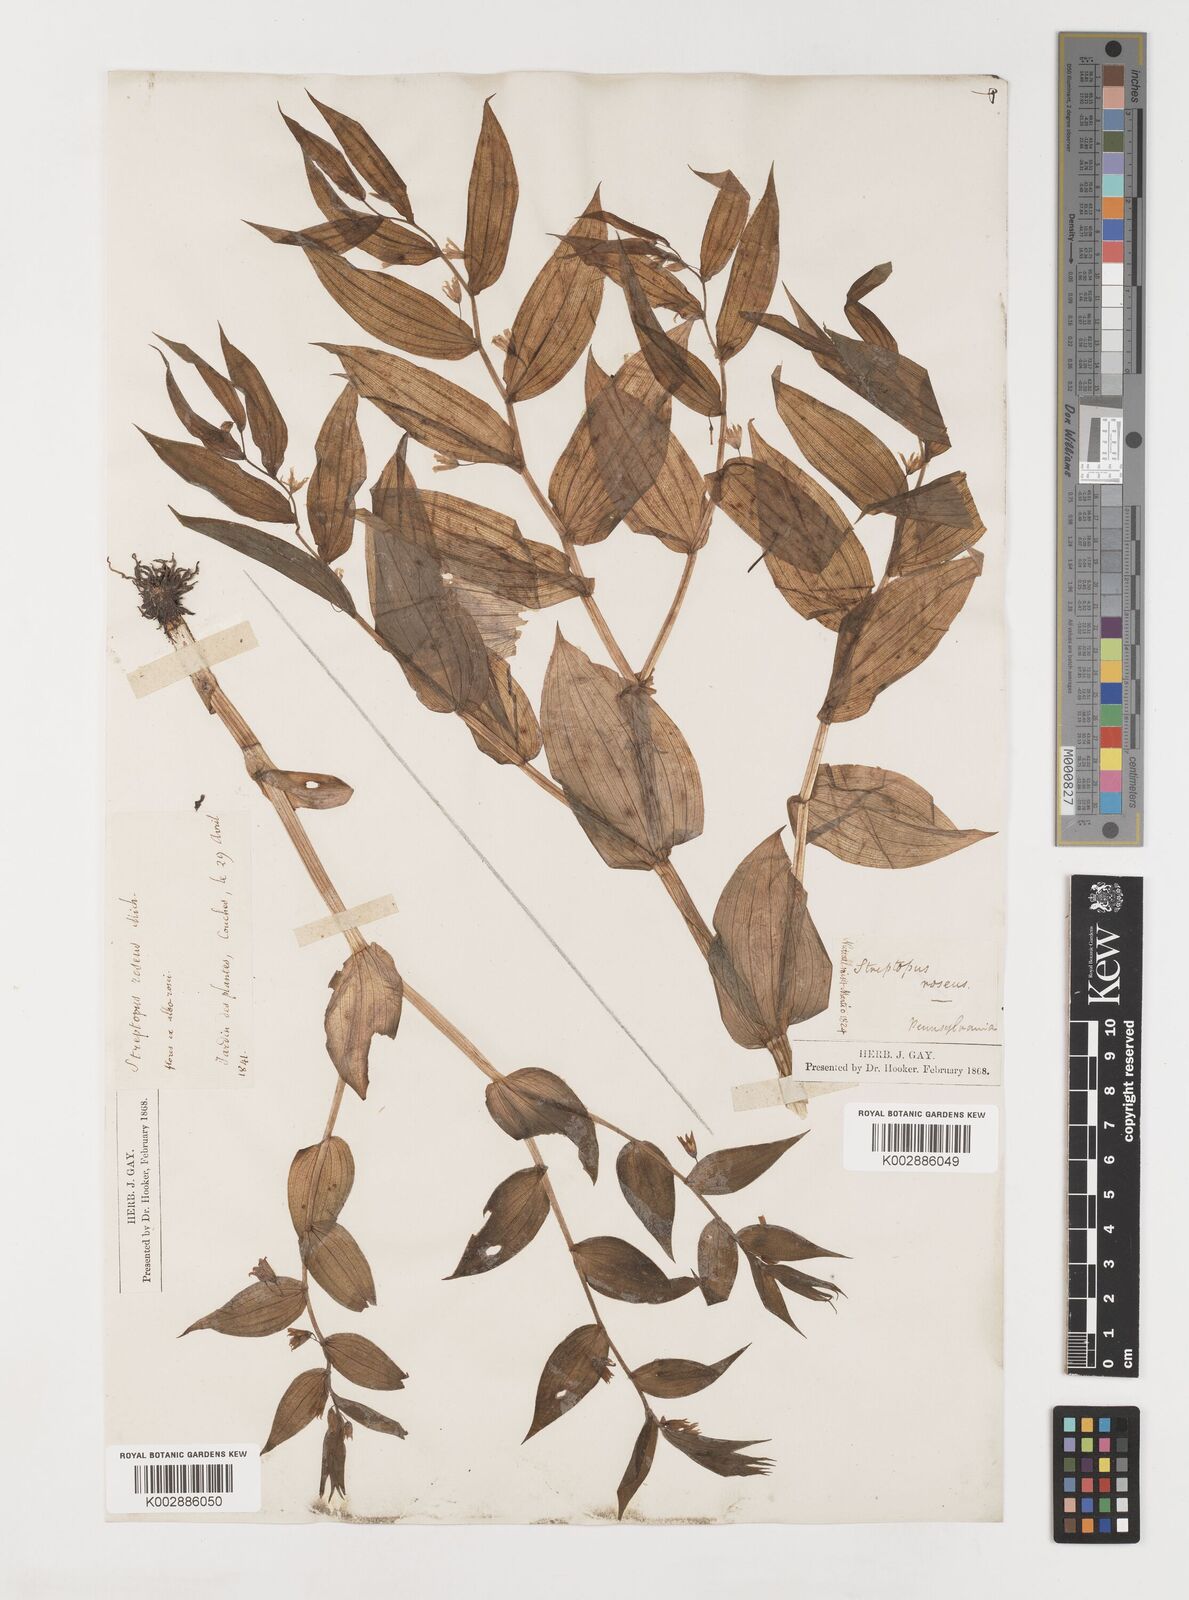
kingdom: Plantae
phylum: Tracheophyta
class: Liliopsida
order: Liliales
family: Liliaceae
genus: Streptopus
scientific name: Streptopus lanceolatus
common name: Rose mandarin
